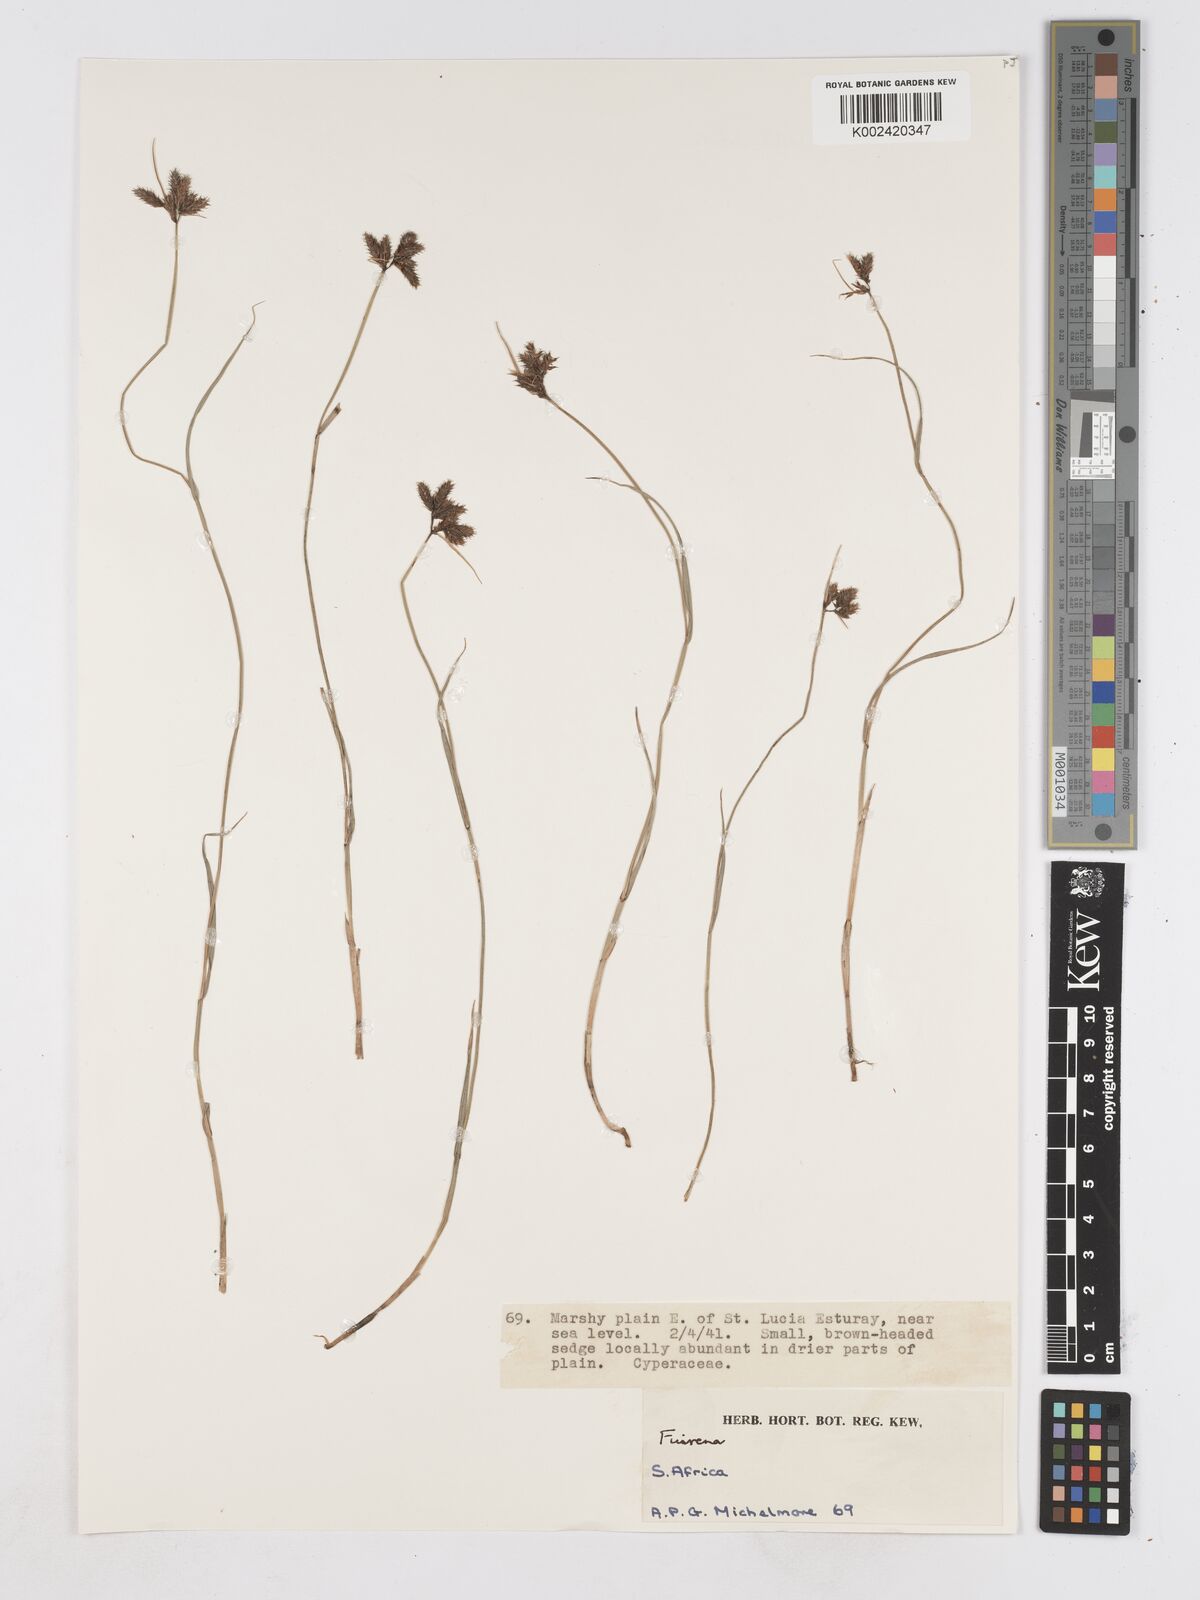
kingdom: Plantae
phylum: Tracheophyta
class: Liliopsida
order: Poales
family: Cyperaceae
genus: Fuirena
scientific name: Fuirena
